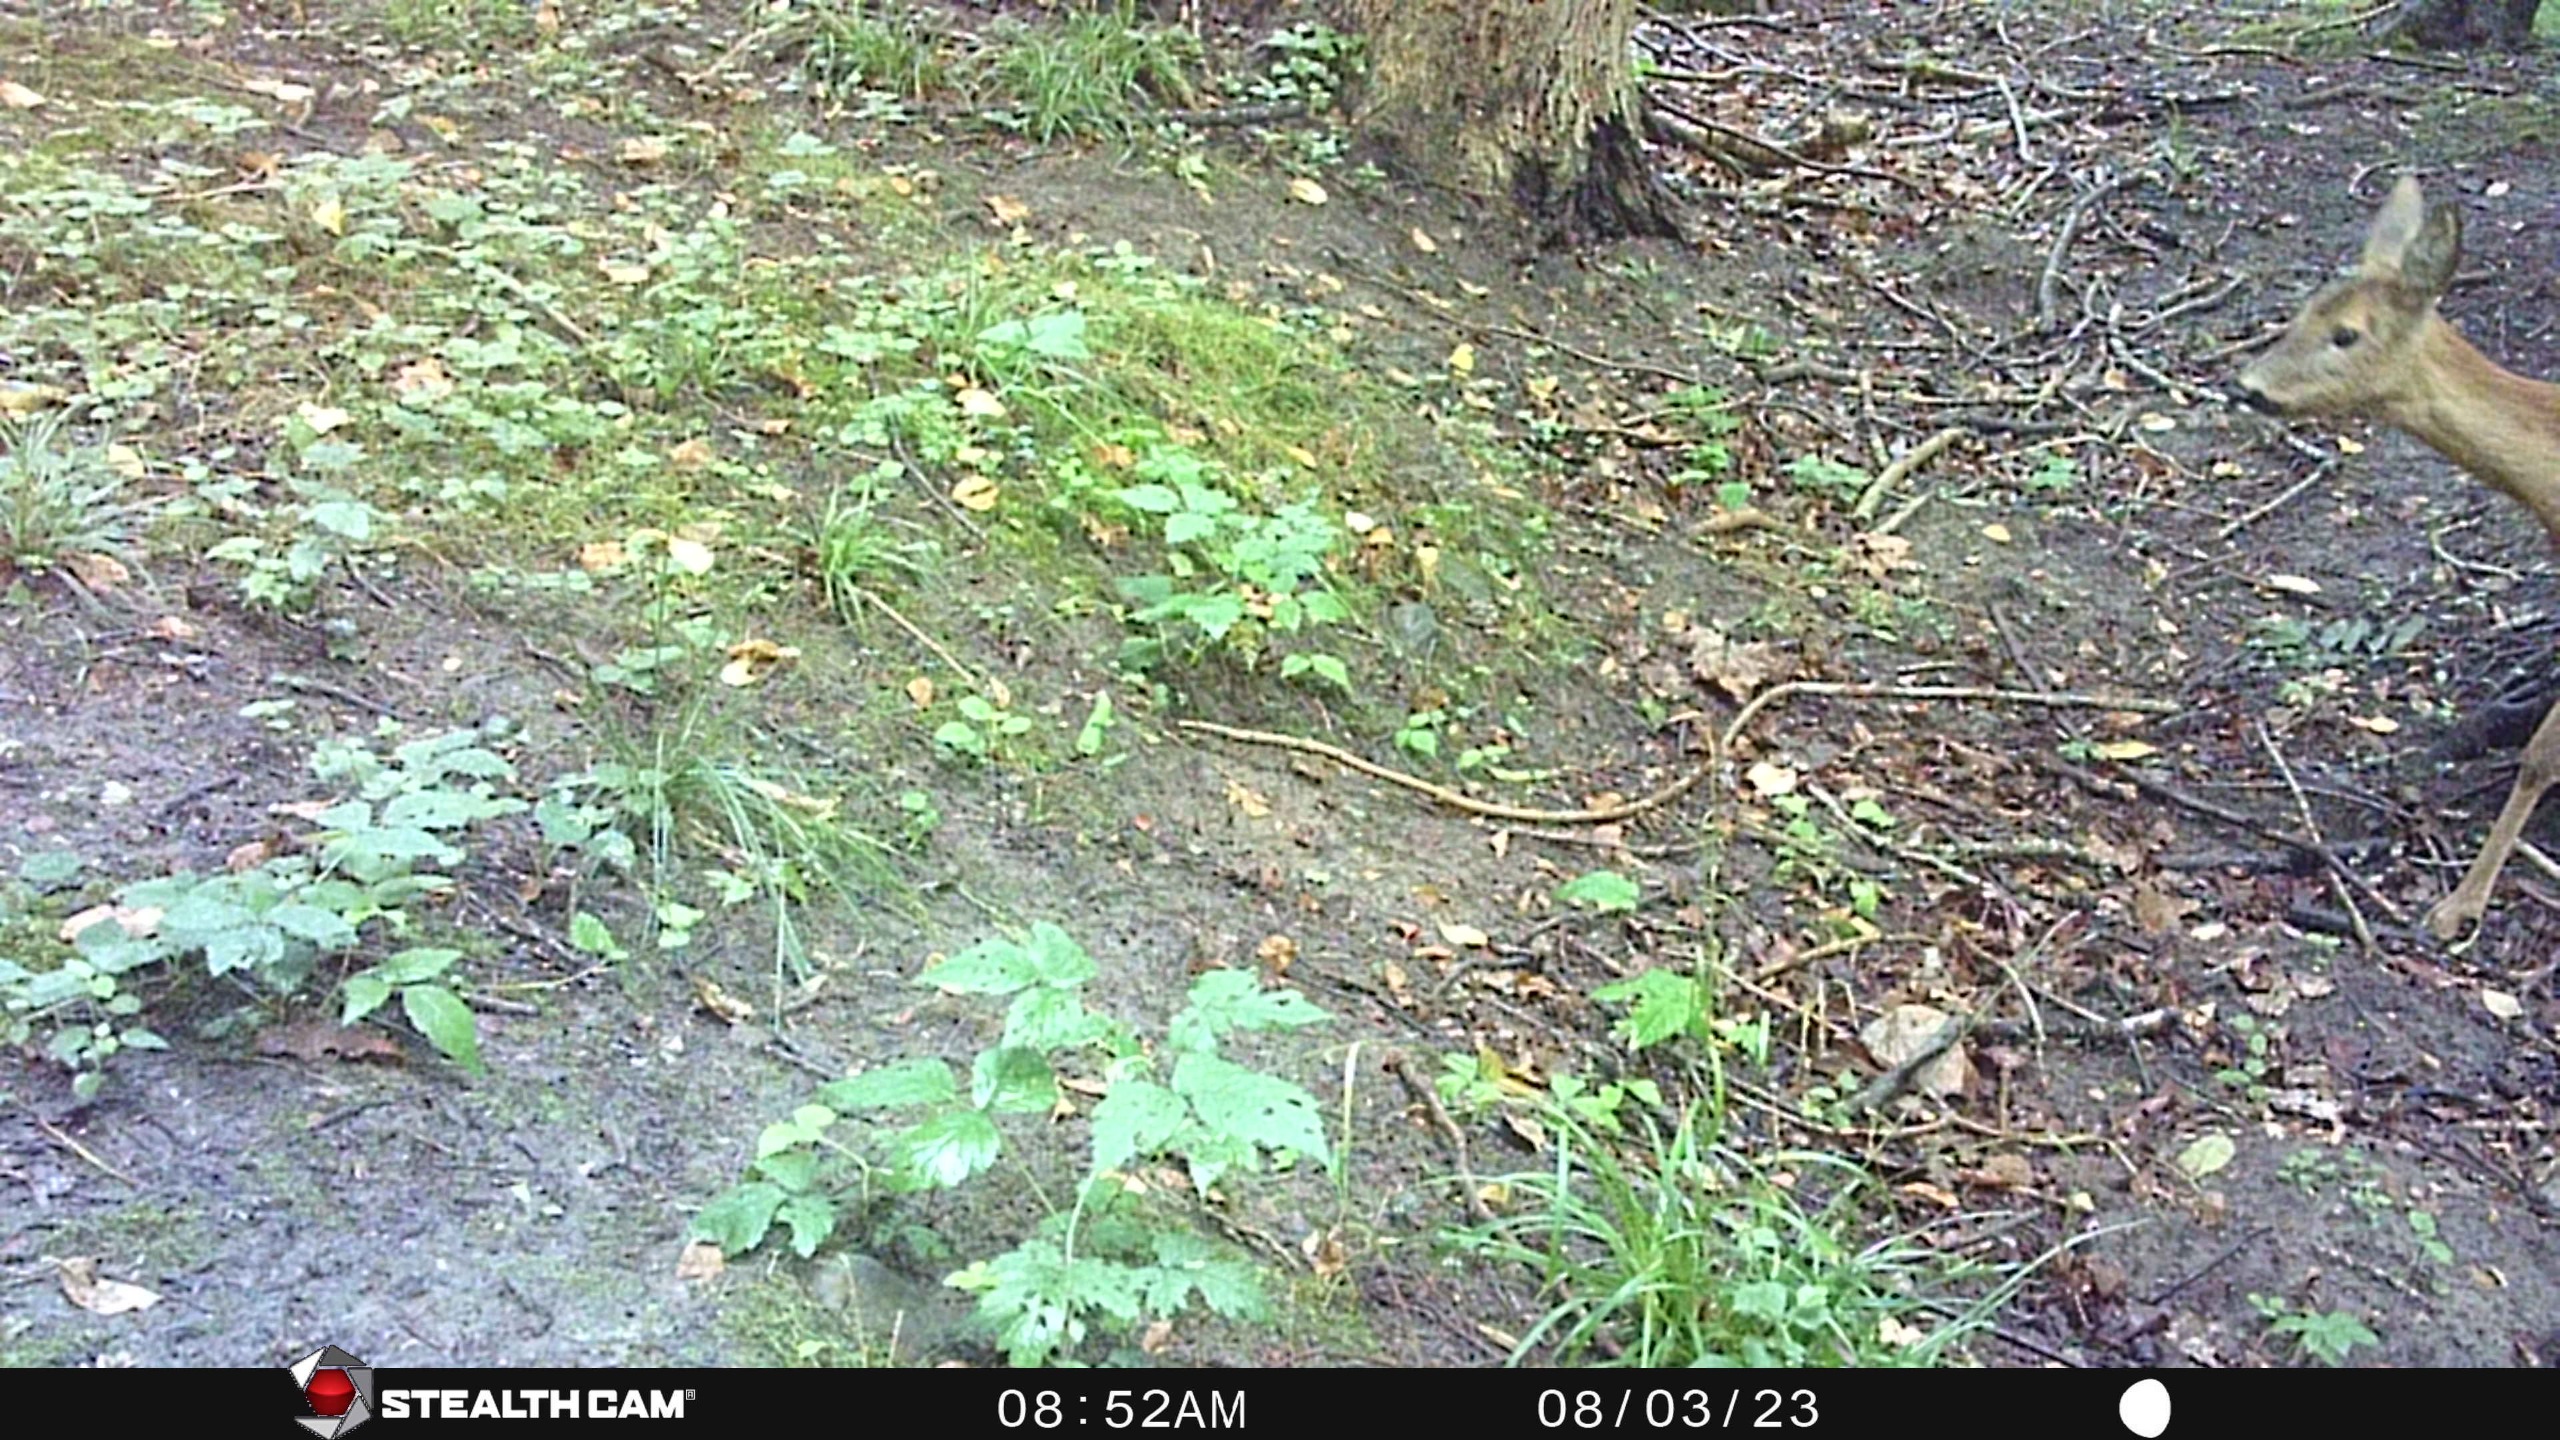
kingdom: Animalia
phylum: Chordata
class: Mammalia
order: Artiodactyla
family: Cervidae
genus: Capreolus
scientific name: Capreolus capreolus
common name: Rådyr
